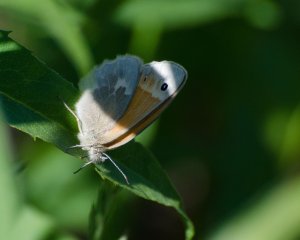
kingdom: Animalia
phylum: Arthropoda
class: Insecta
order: Lepidoptera
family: Nymphalidae
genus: Coenonympha
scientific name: Coenonympha tullia
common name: Large Heath
